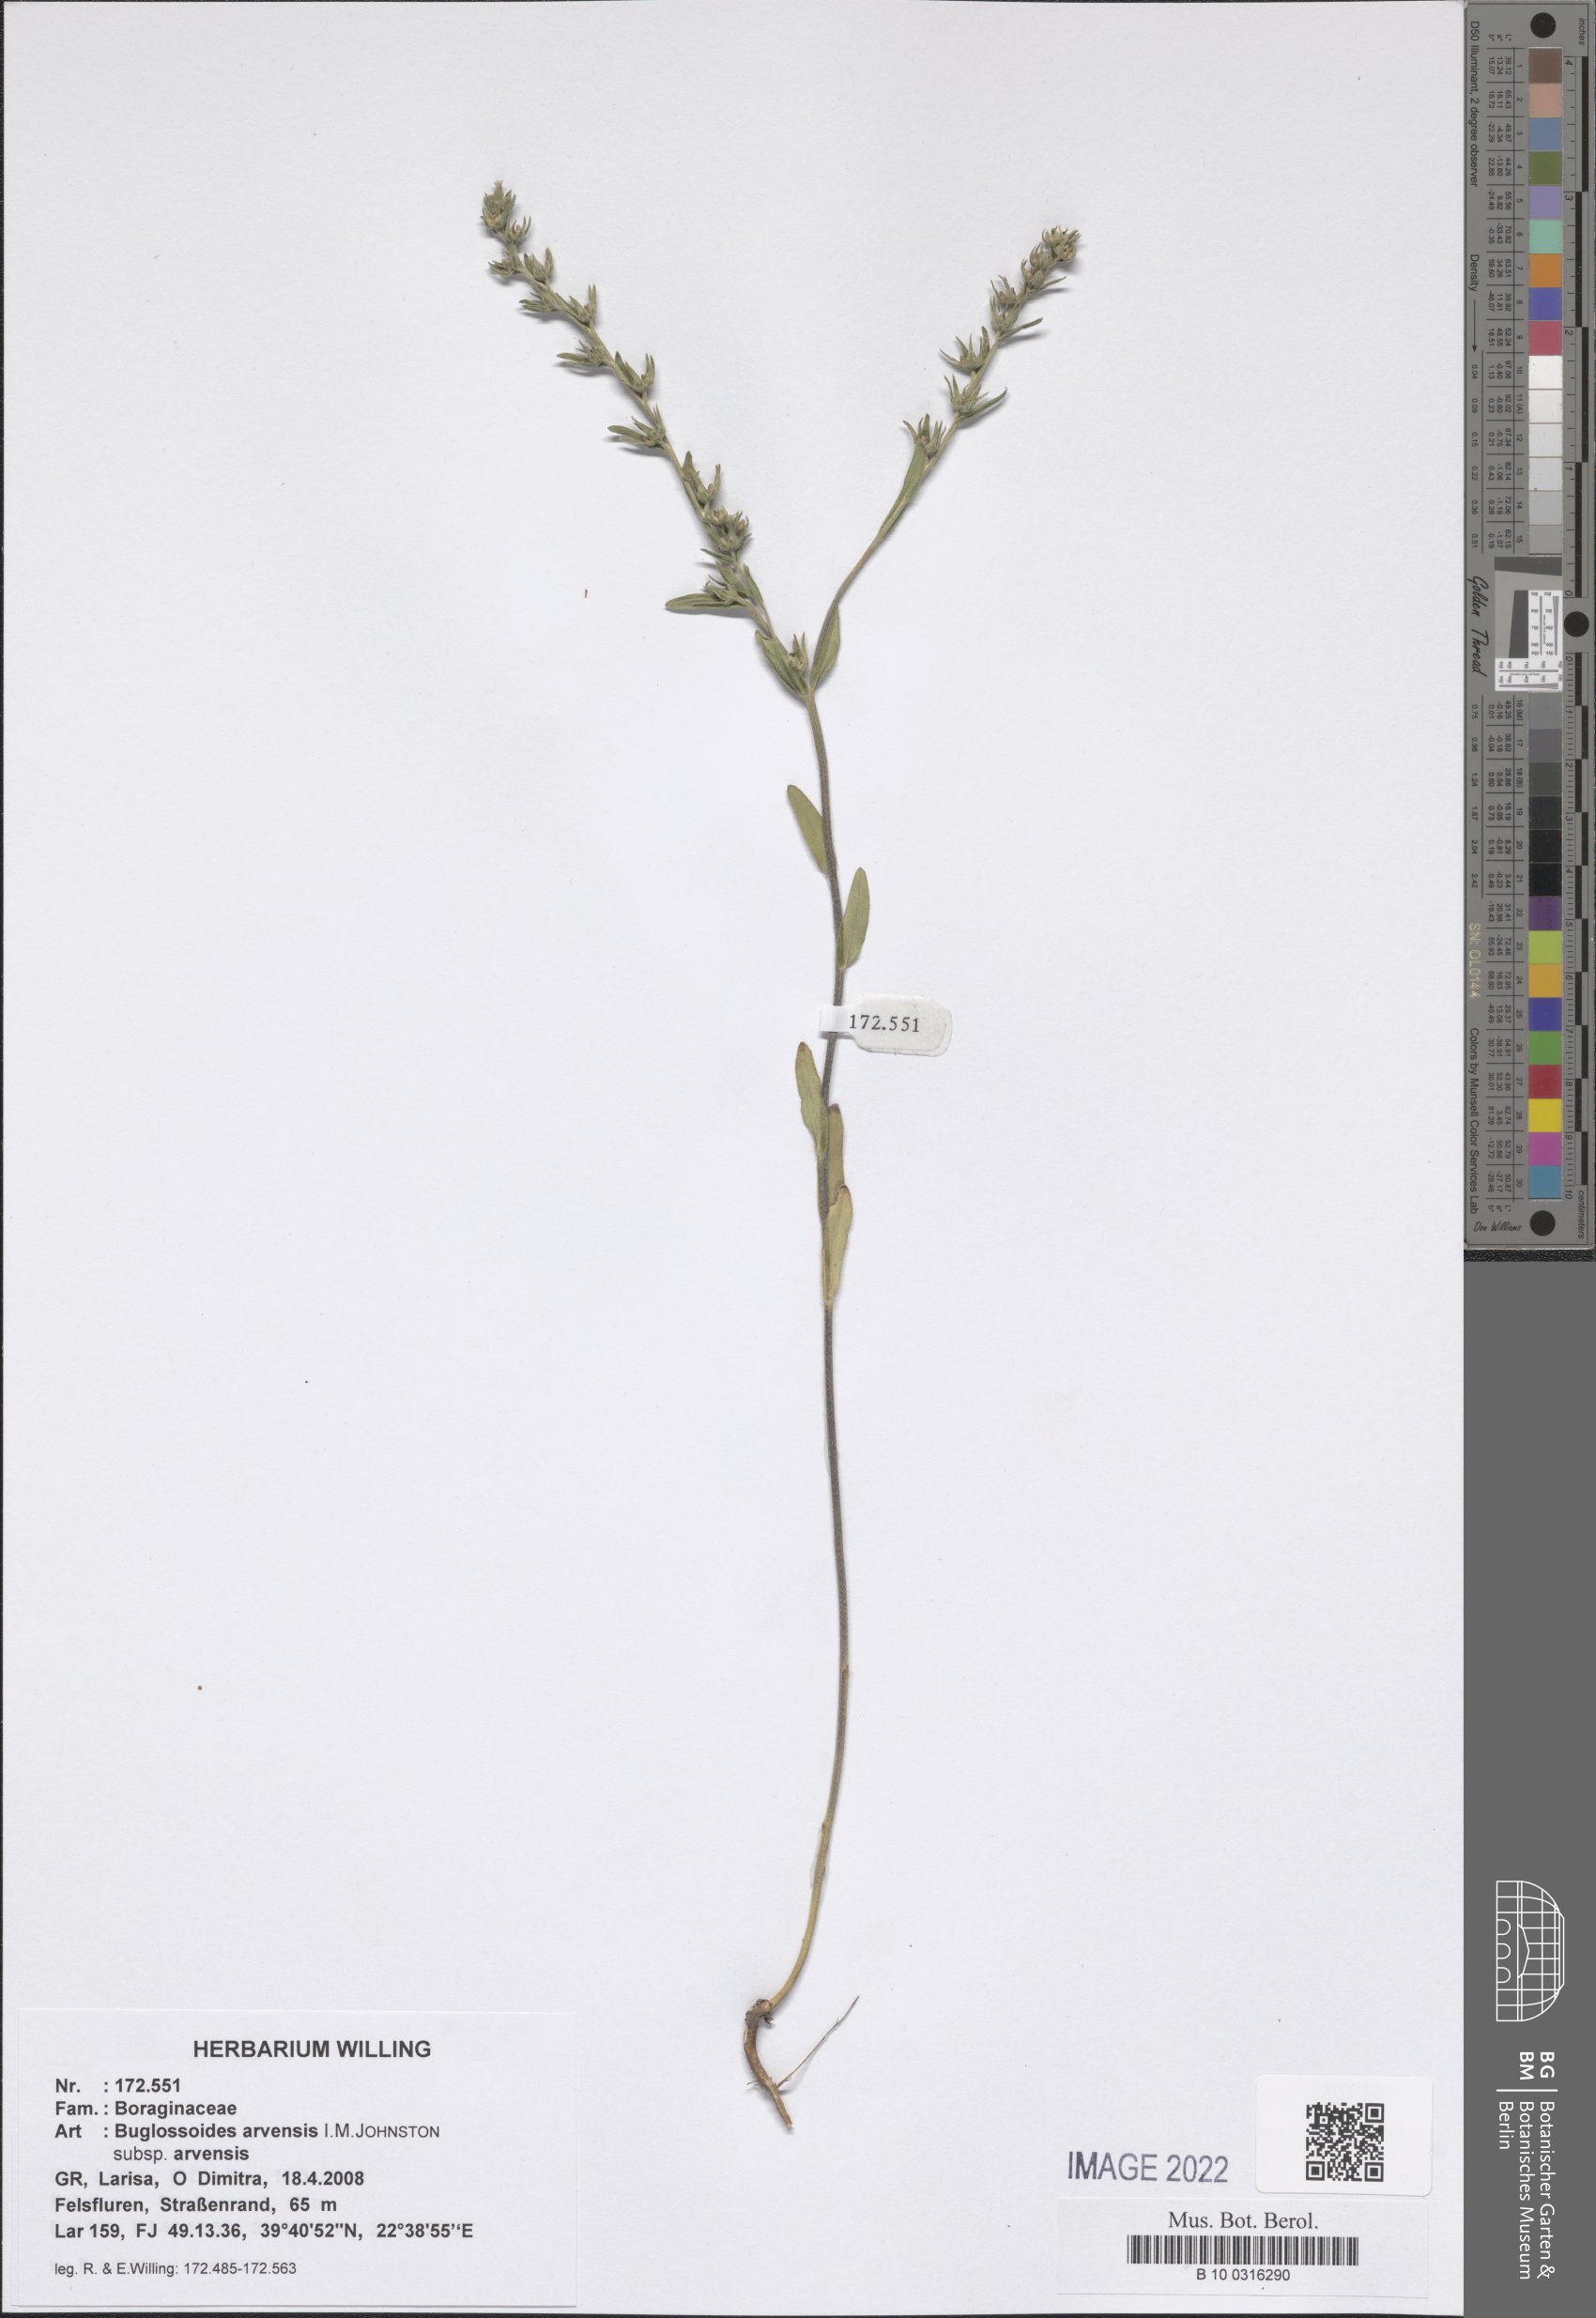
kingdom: Plantae
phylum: Tracheophyta
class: Magnoliopsida
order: Boraginales
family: Boraginaceae
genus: Buglossoides
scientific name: Buglossoides arvensis
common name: Corn gromwell
